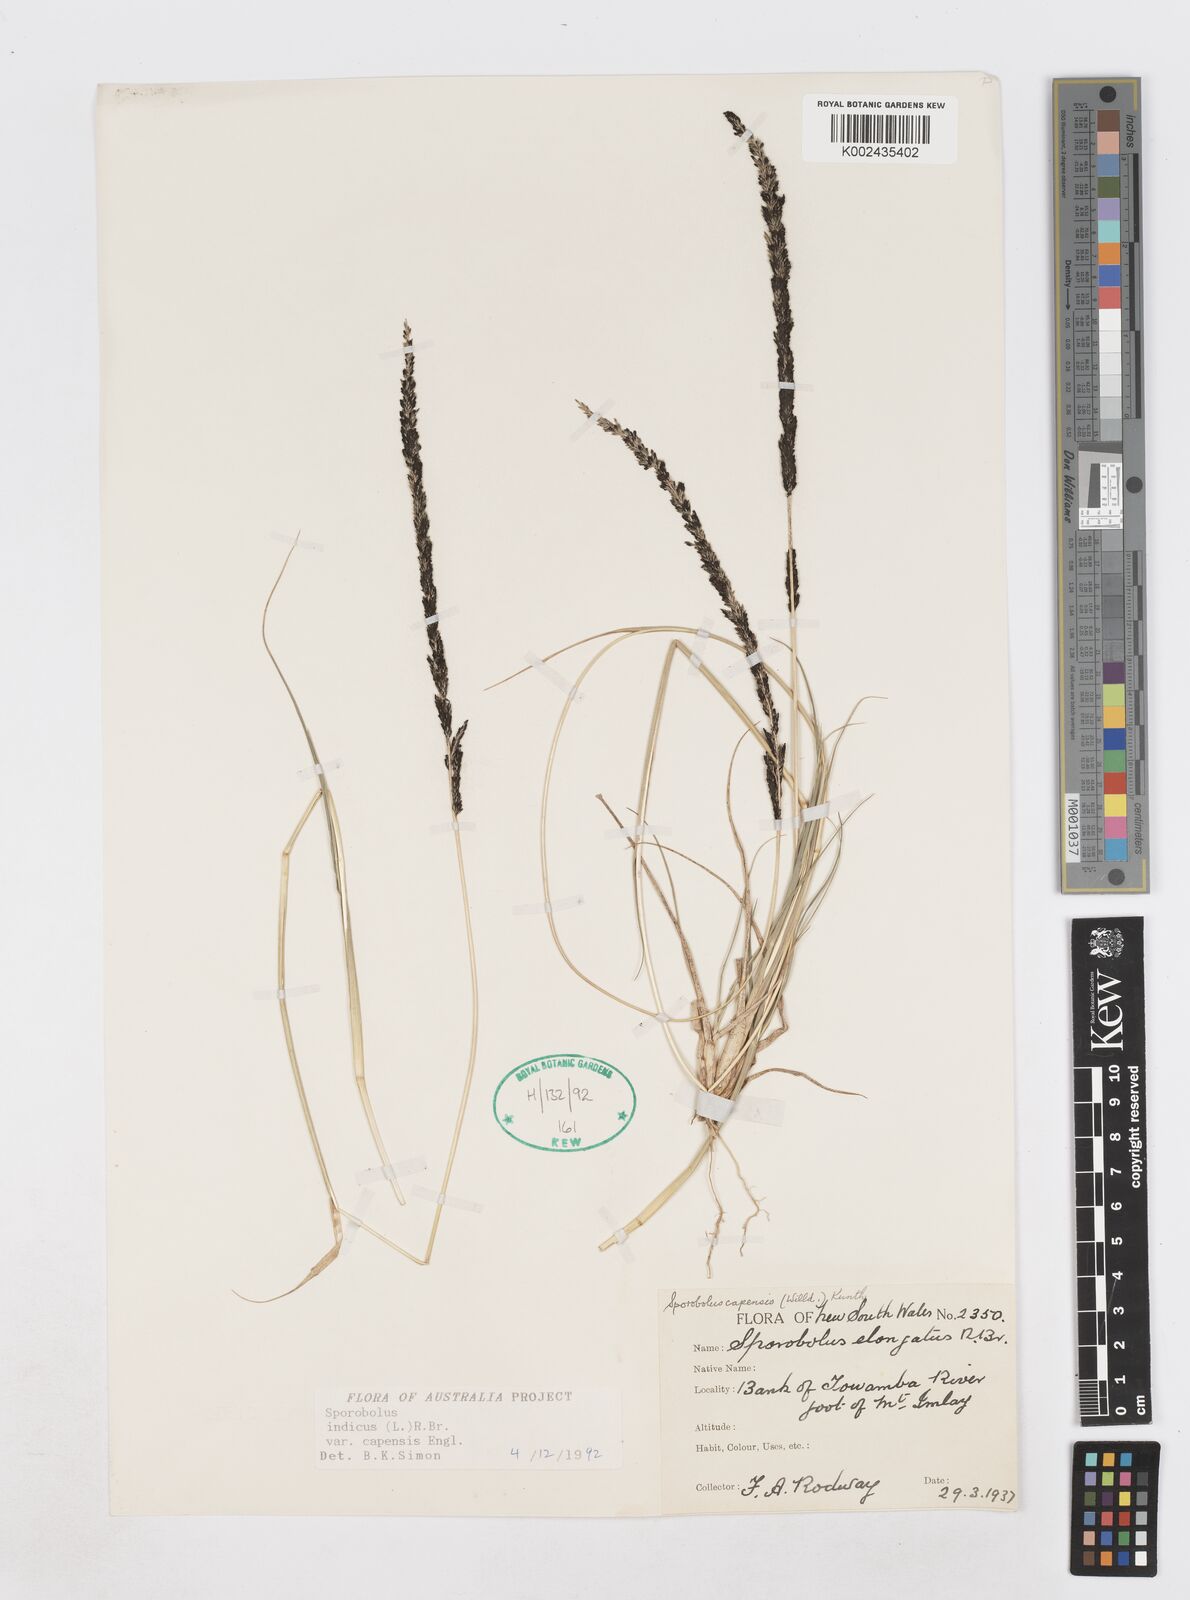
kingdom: Plantae
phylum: Tracheophyta
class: Liliopsida
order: Poales
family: Poaceae
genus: Sporobolus
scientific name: Sporobolus africanus
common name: African dropseed
